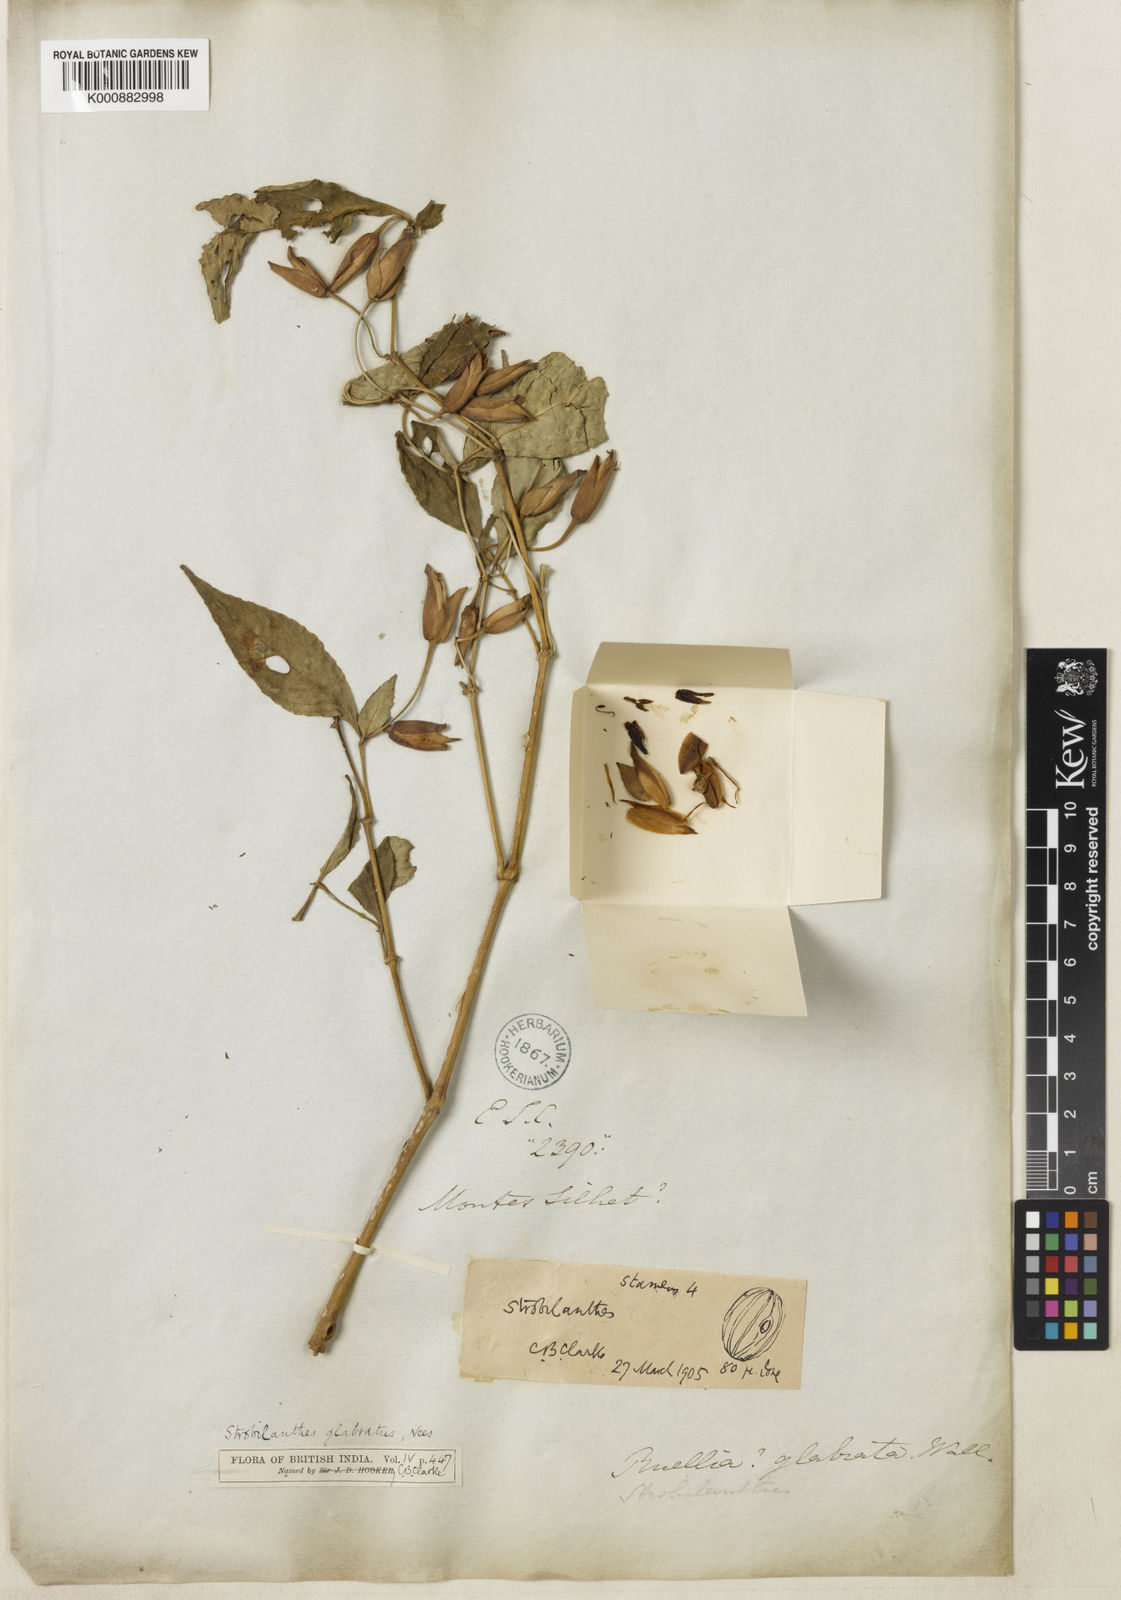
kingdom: Plantae
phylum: Tracheophyta
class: Magnoliopsida
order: Lamiales
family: Acanthaceae
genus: Strobilanthes
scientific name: Strobilanthes glabrata
